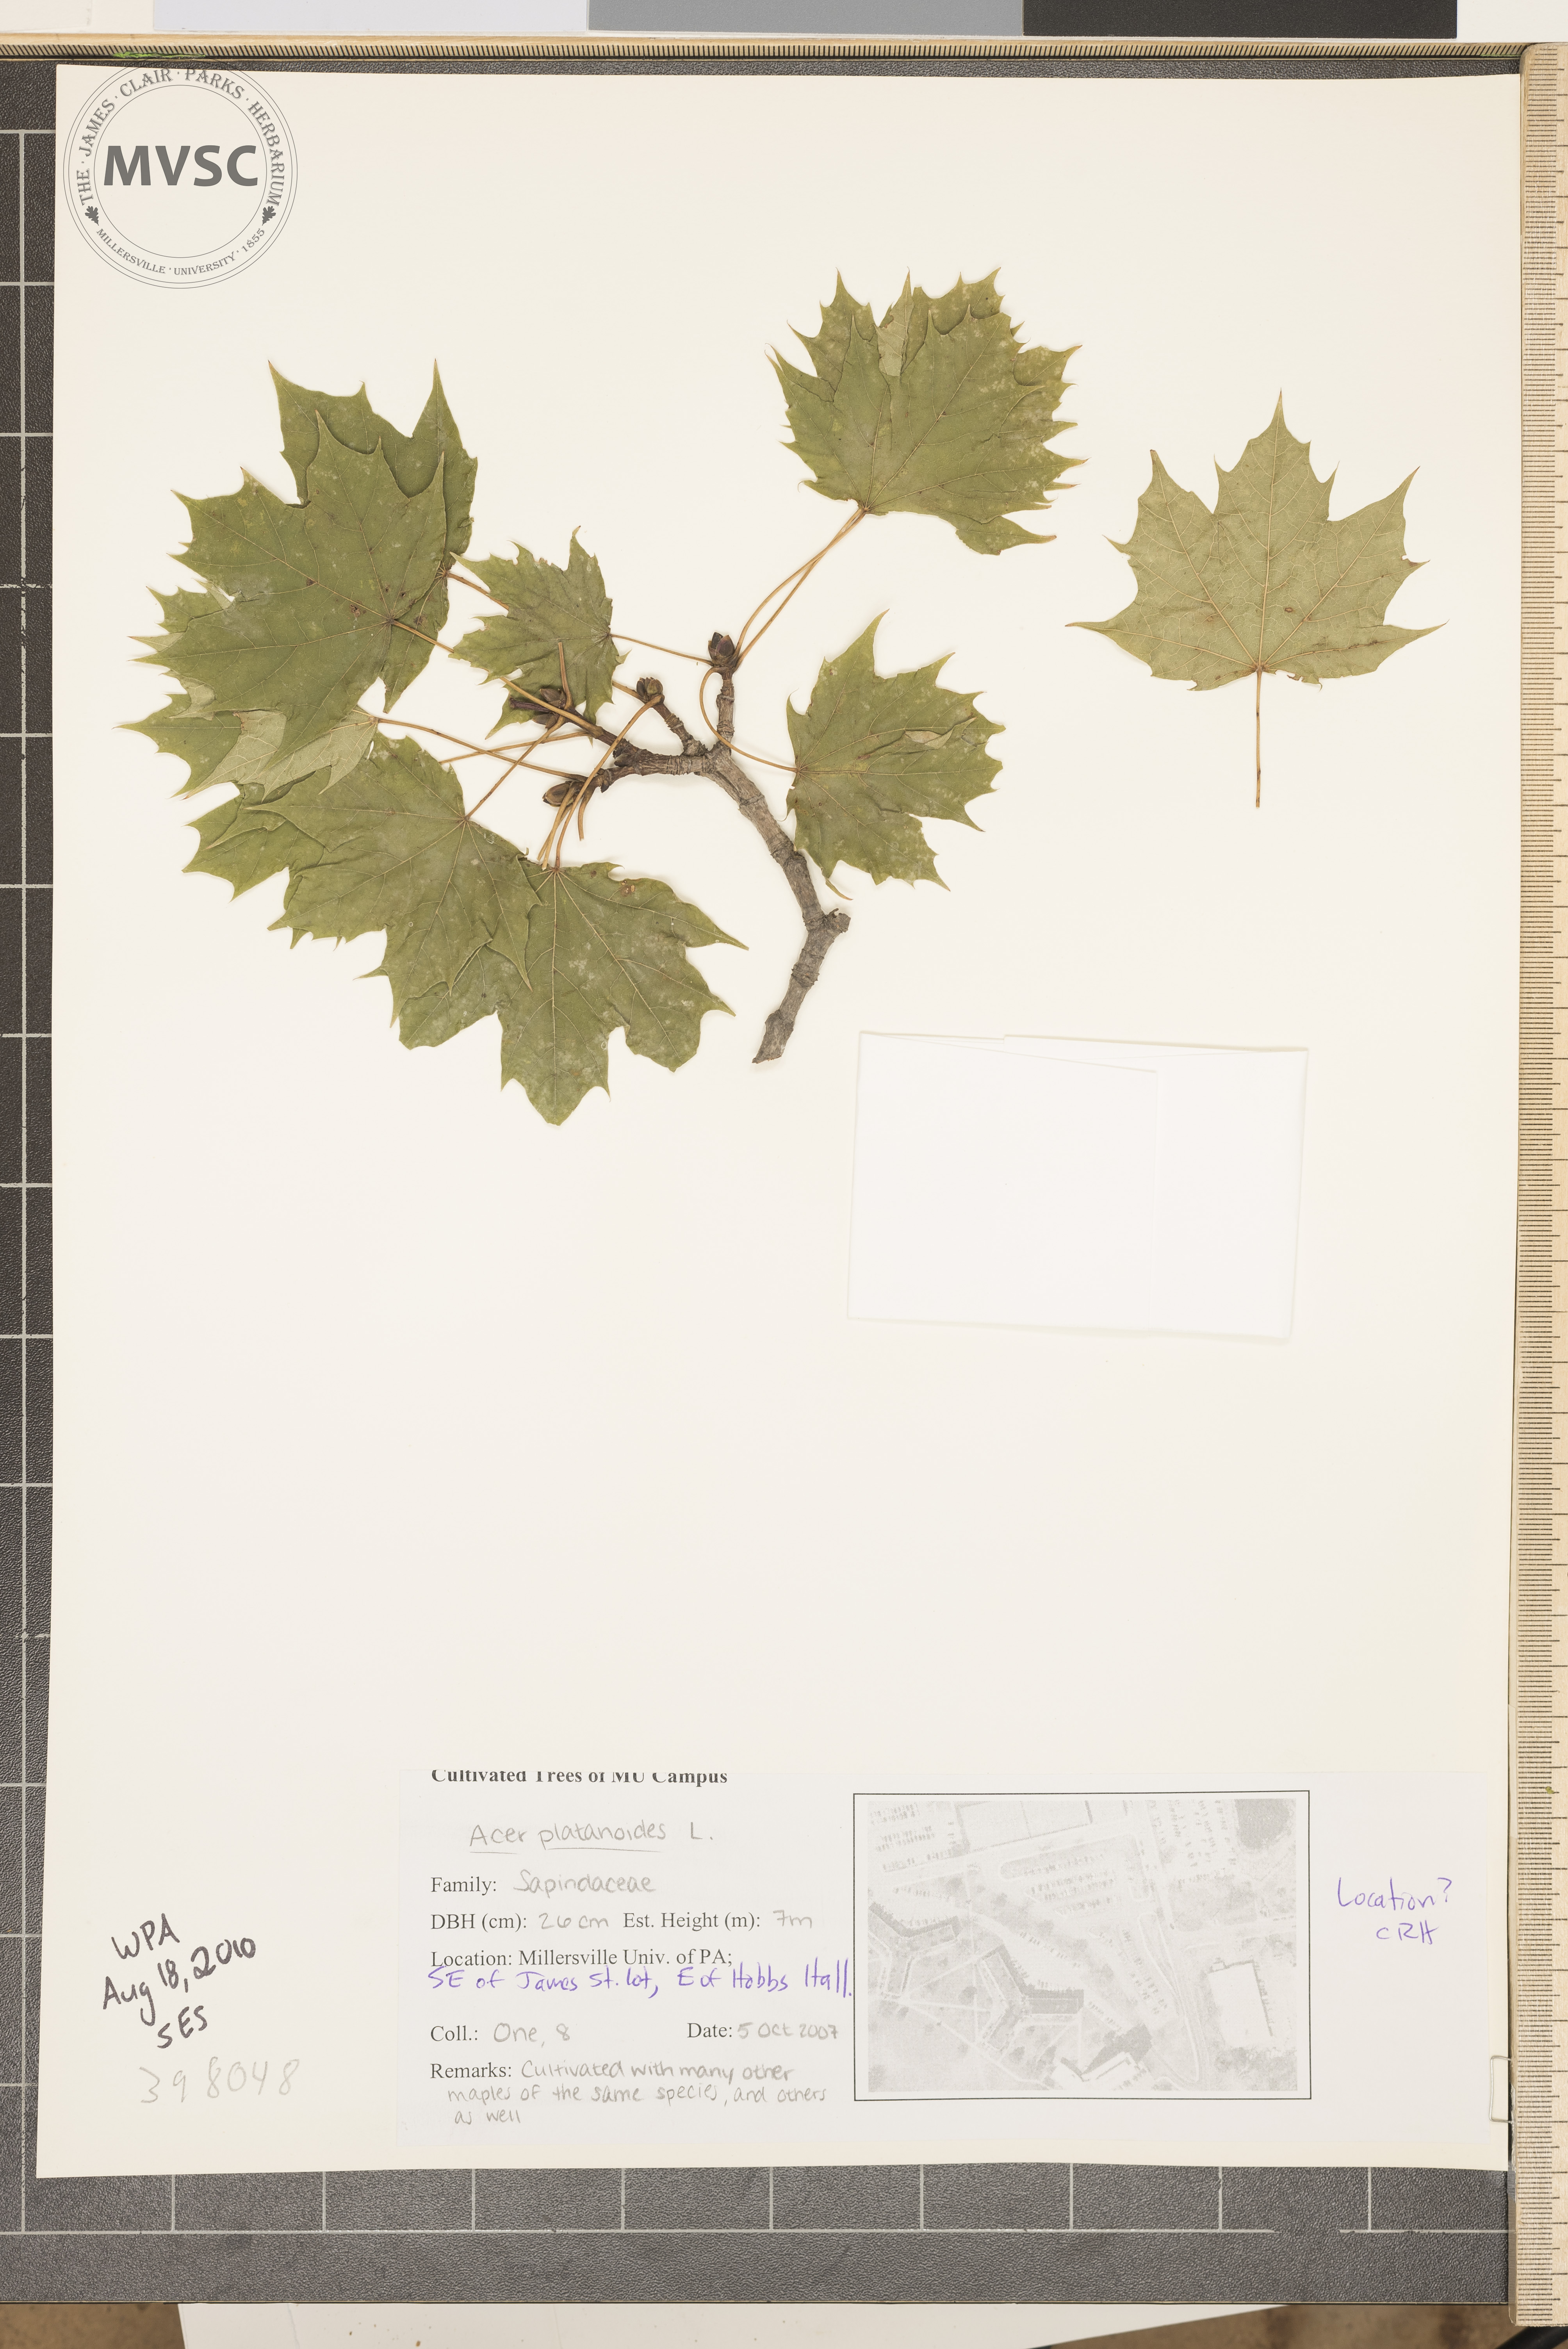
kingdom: Plantae
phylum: Tracheophyta
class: Magnoliopsida
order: Sapindales
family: Sapindaceae
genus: Acer
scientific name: Acer platanoides
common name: Norway maple
